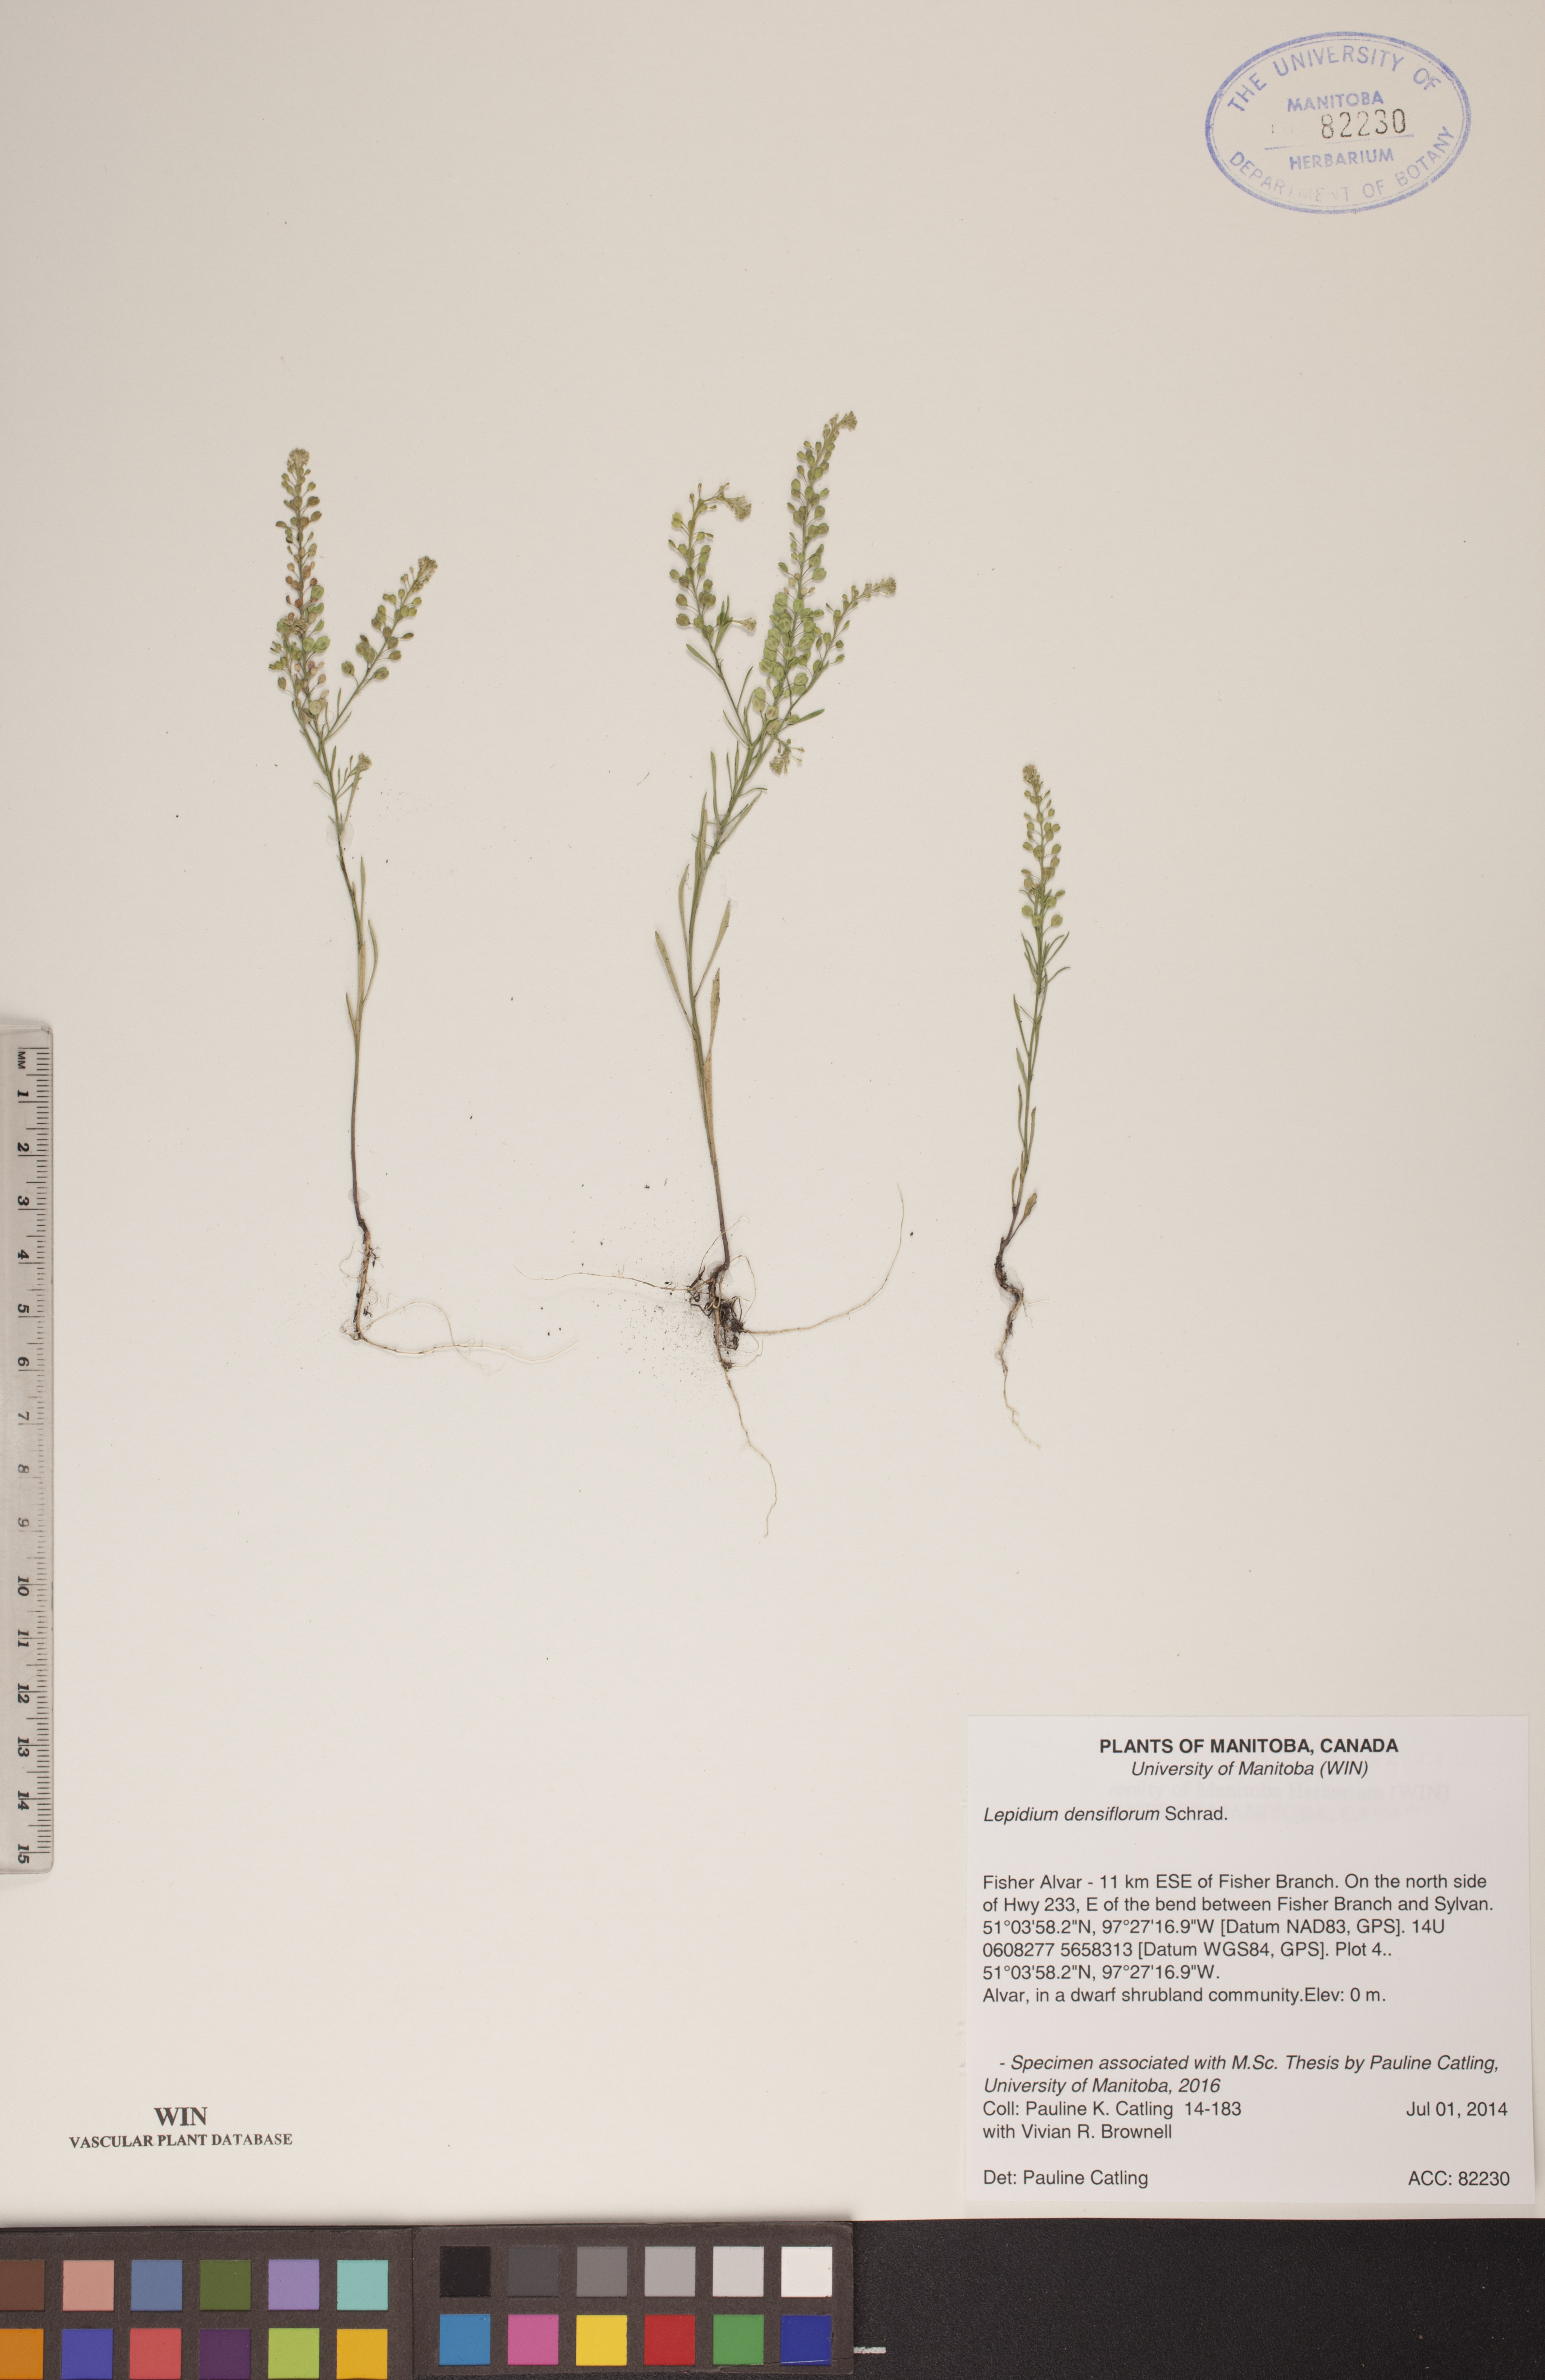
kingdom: Plantae
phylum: Tracheophyta
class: Magnoliopsida
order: Brassicales
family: Brassicaceae
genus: Lepidium
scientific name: Lepidium densiflorum
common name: Miner's pepperwort
